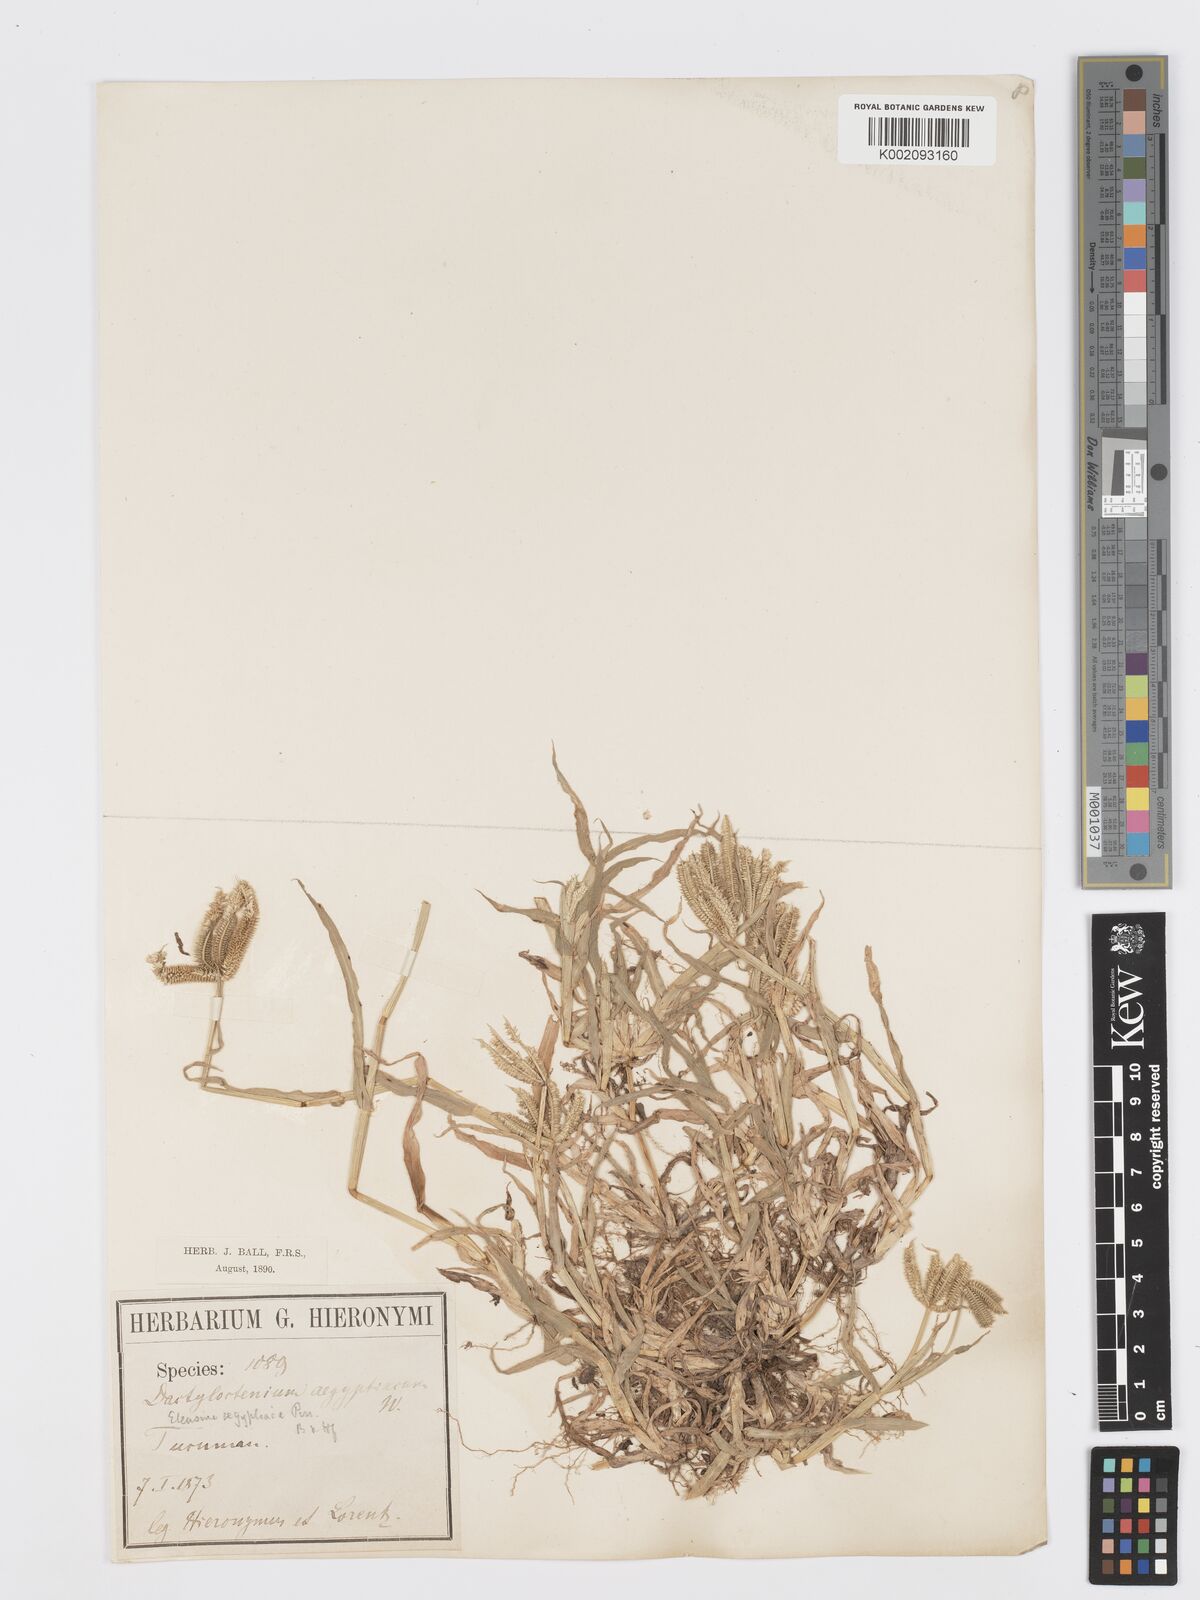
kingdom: Plantae
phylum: Tracheophyta
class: Liliopsida
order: Poales
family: Poaceae
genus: Dactyloctenium
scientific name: Dactyloctenium aegyptium
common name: Egyptian grass
